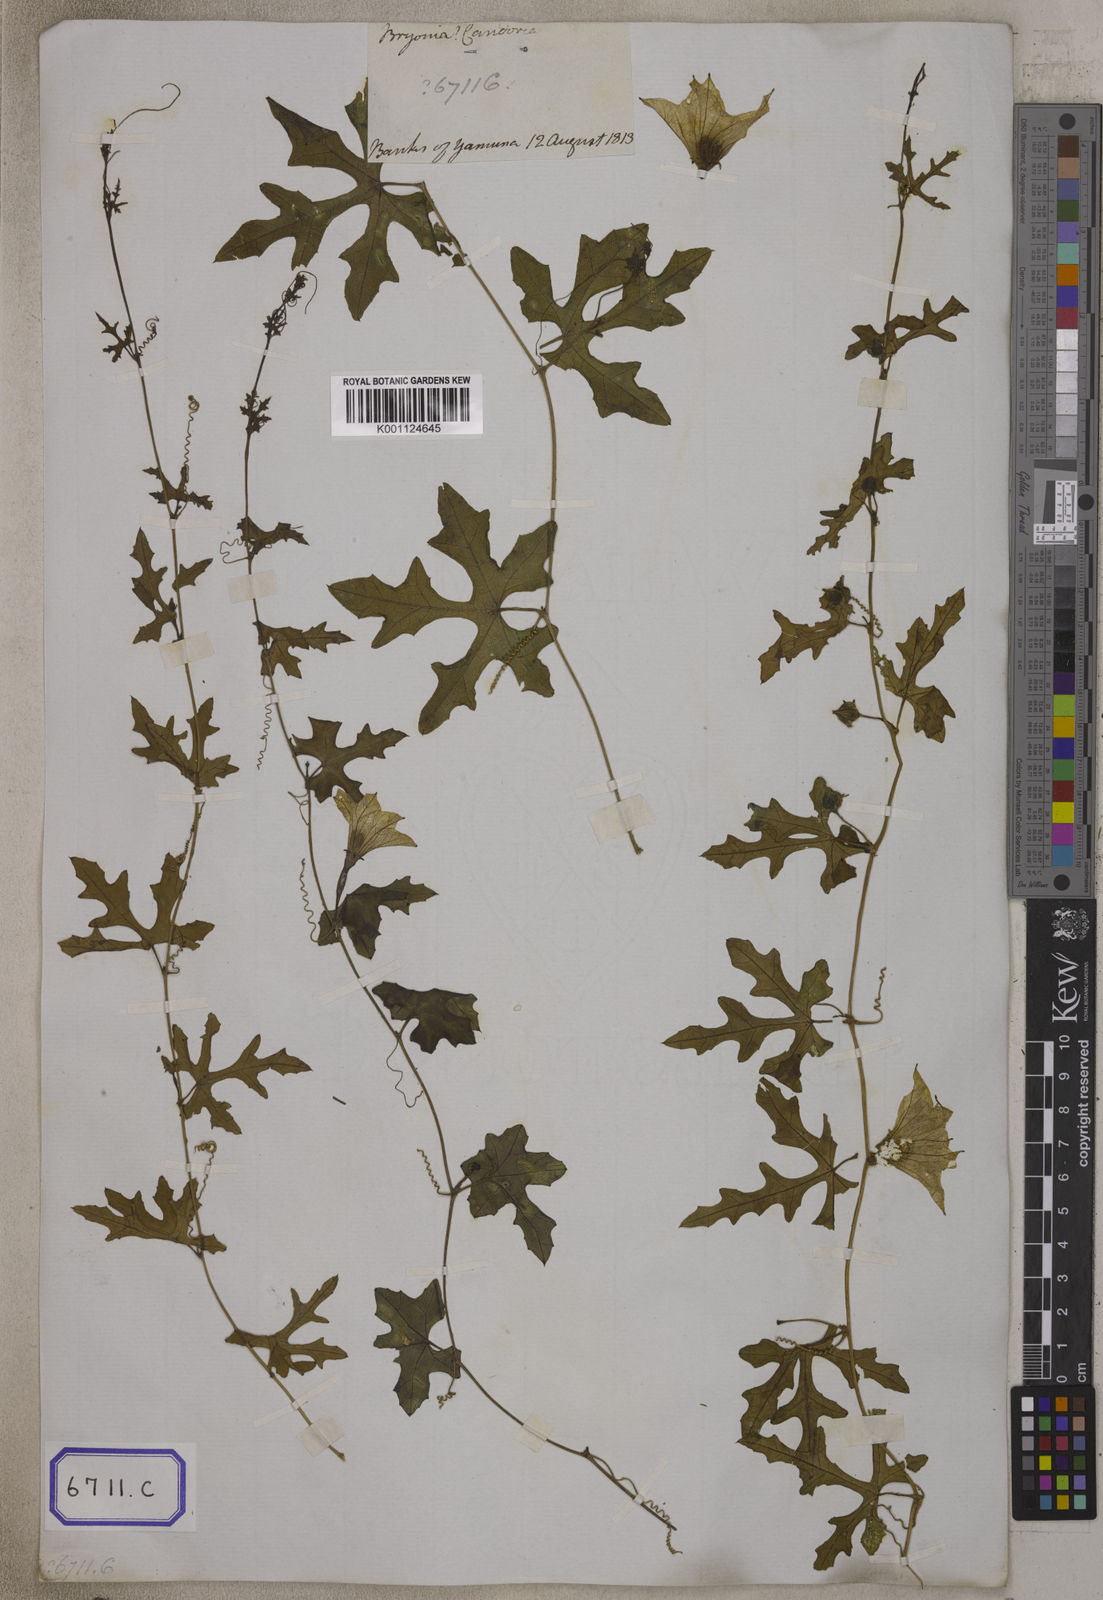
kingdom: Plantae
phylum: Tracheophyta
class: Magnoliopsida
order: Cucurbitales
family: Cucurbitaceae
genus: Bryonia
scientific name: Bryonia
